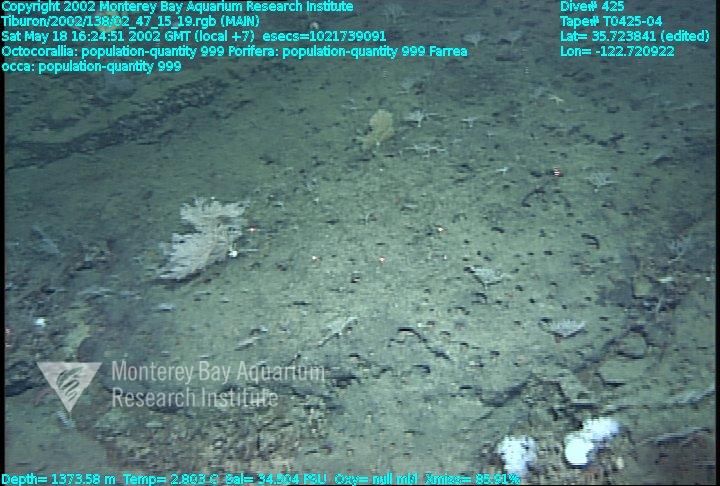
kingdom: Animalia
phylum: Porifera
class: Hexactinellida
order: Sceptrulophora
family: Farreidae
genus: Farrea
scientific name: Farrea occa
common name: Reversed glass sponge
